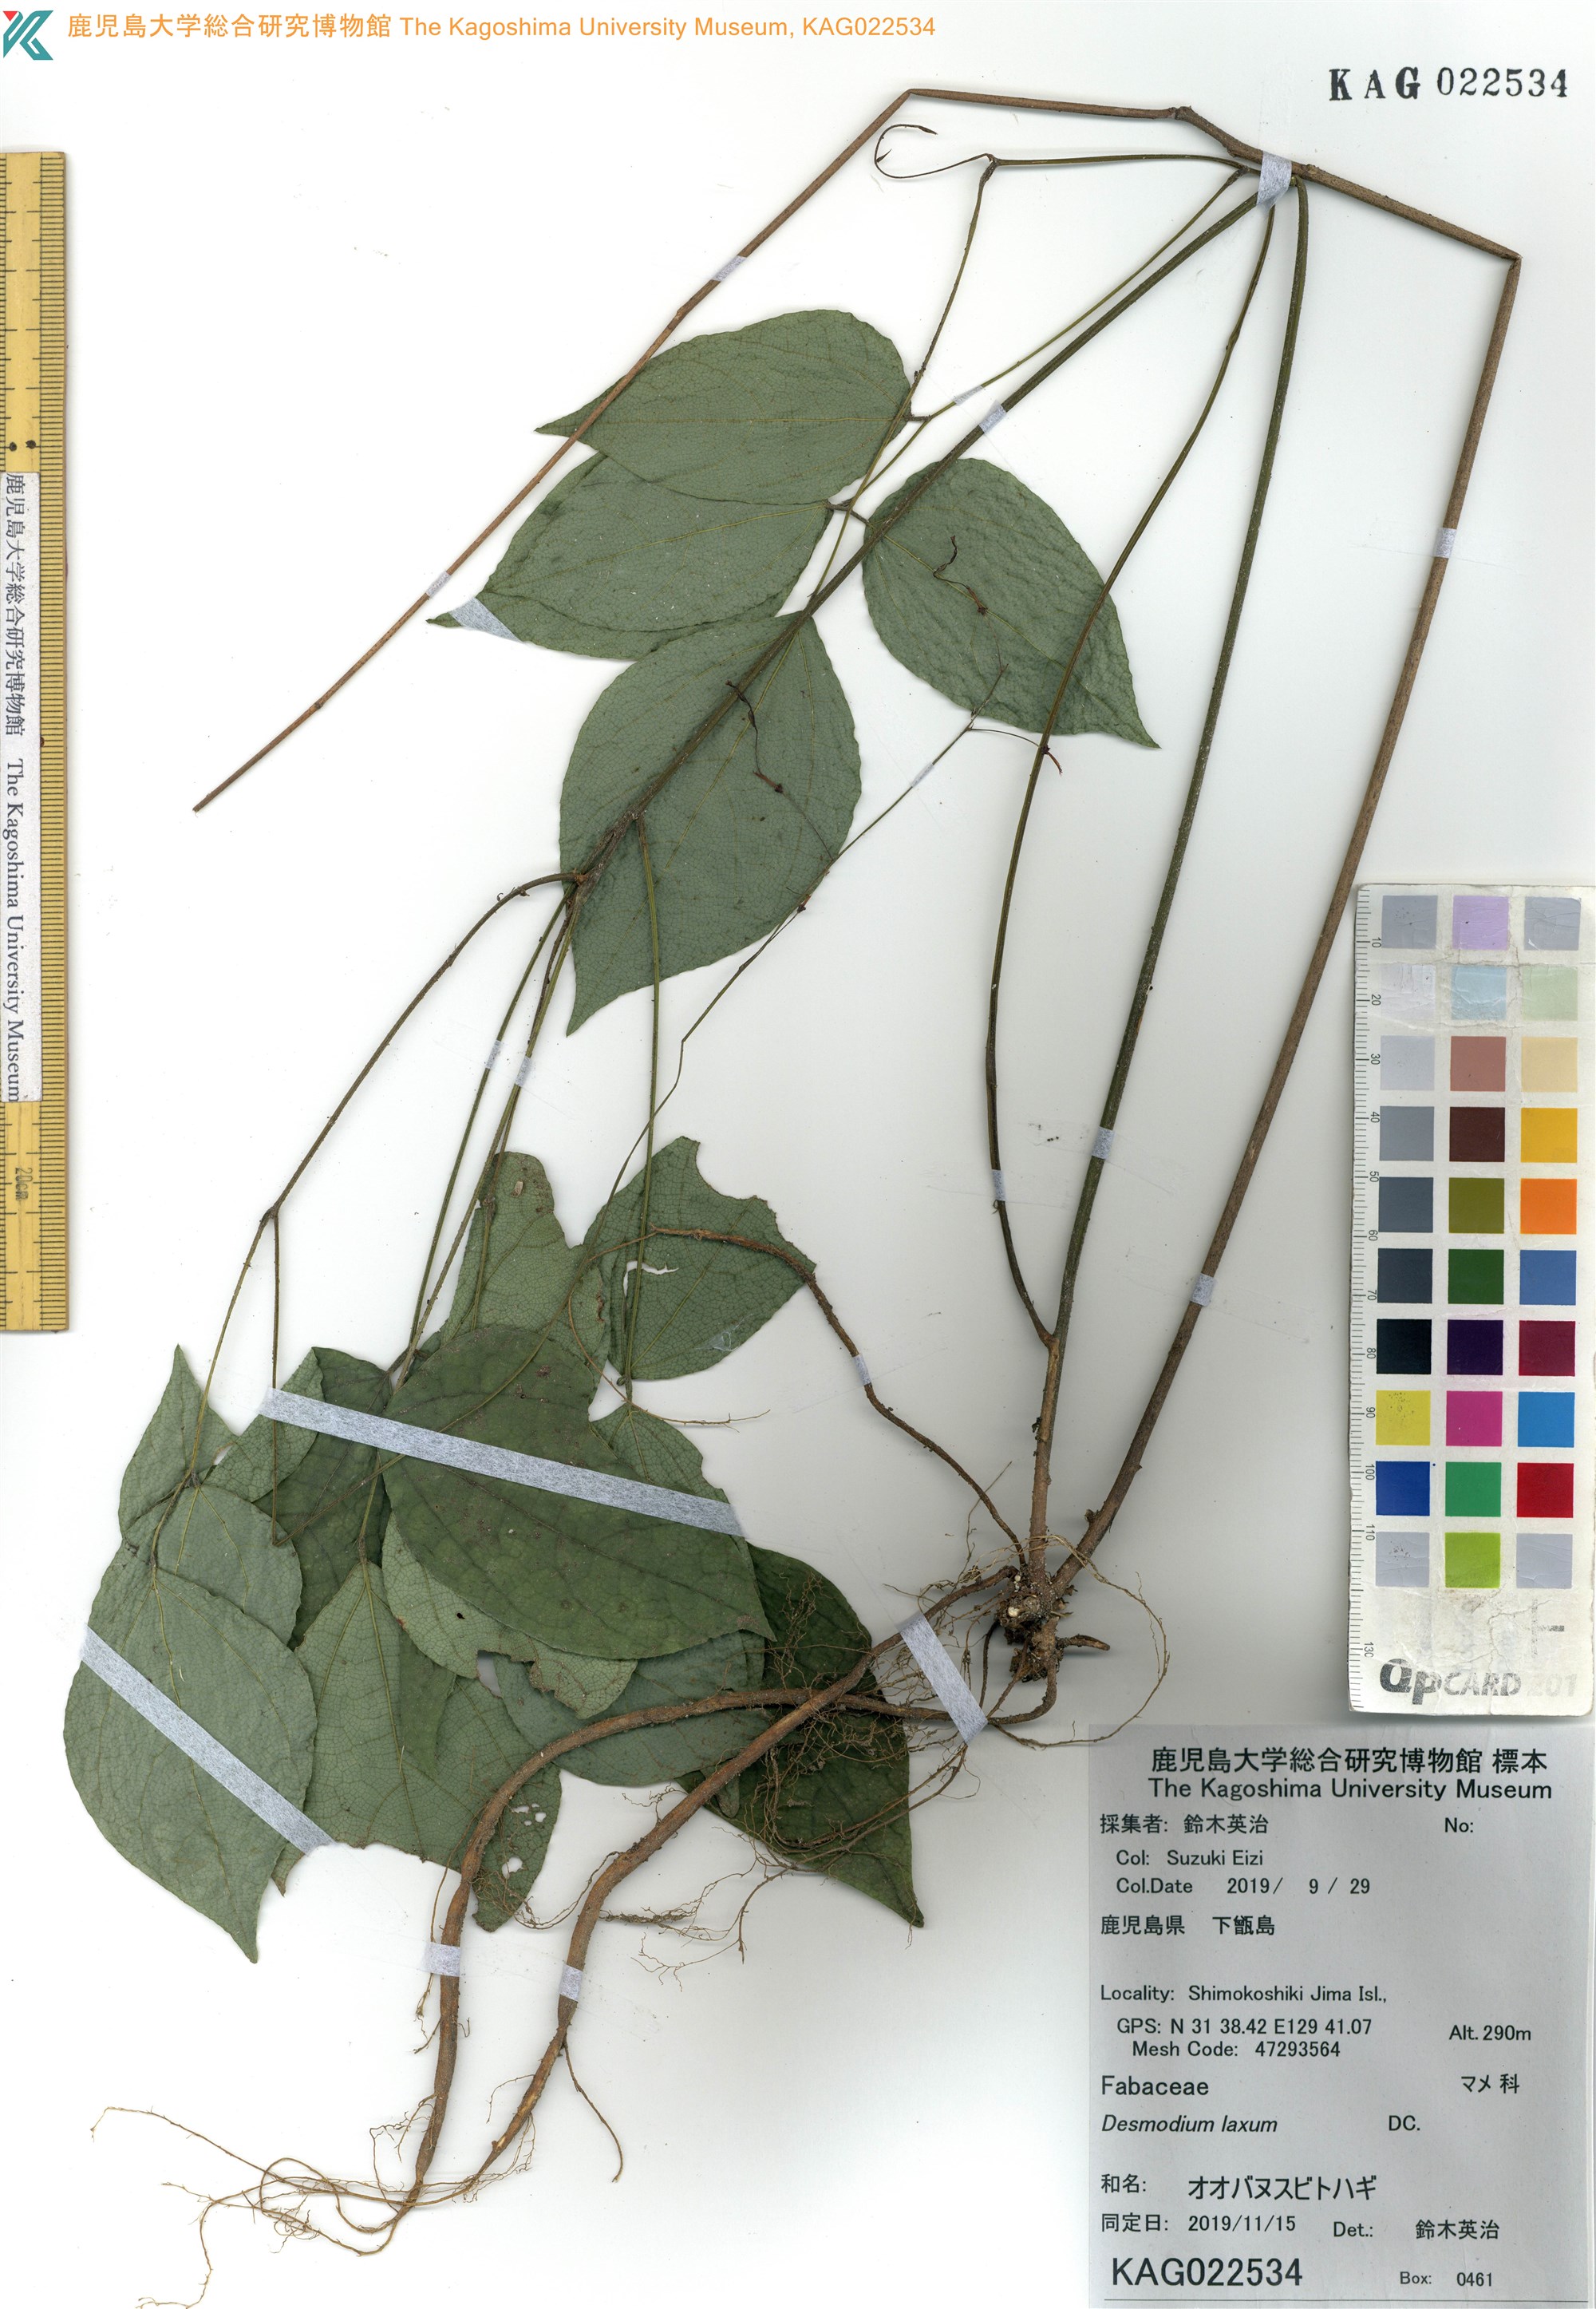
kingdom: Plantae
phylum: Tracheophyta
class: Magnoliopsida
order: Fabales
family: Fabaceae
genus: Hylodesmum
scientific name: Hylodesmum laxum
